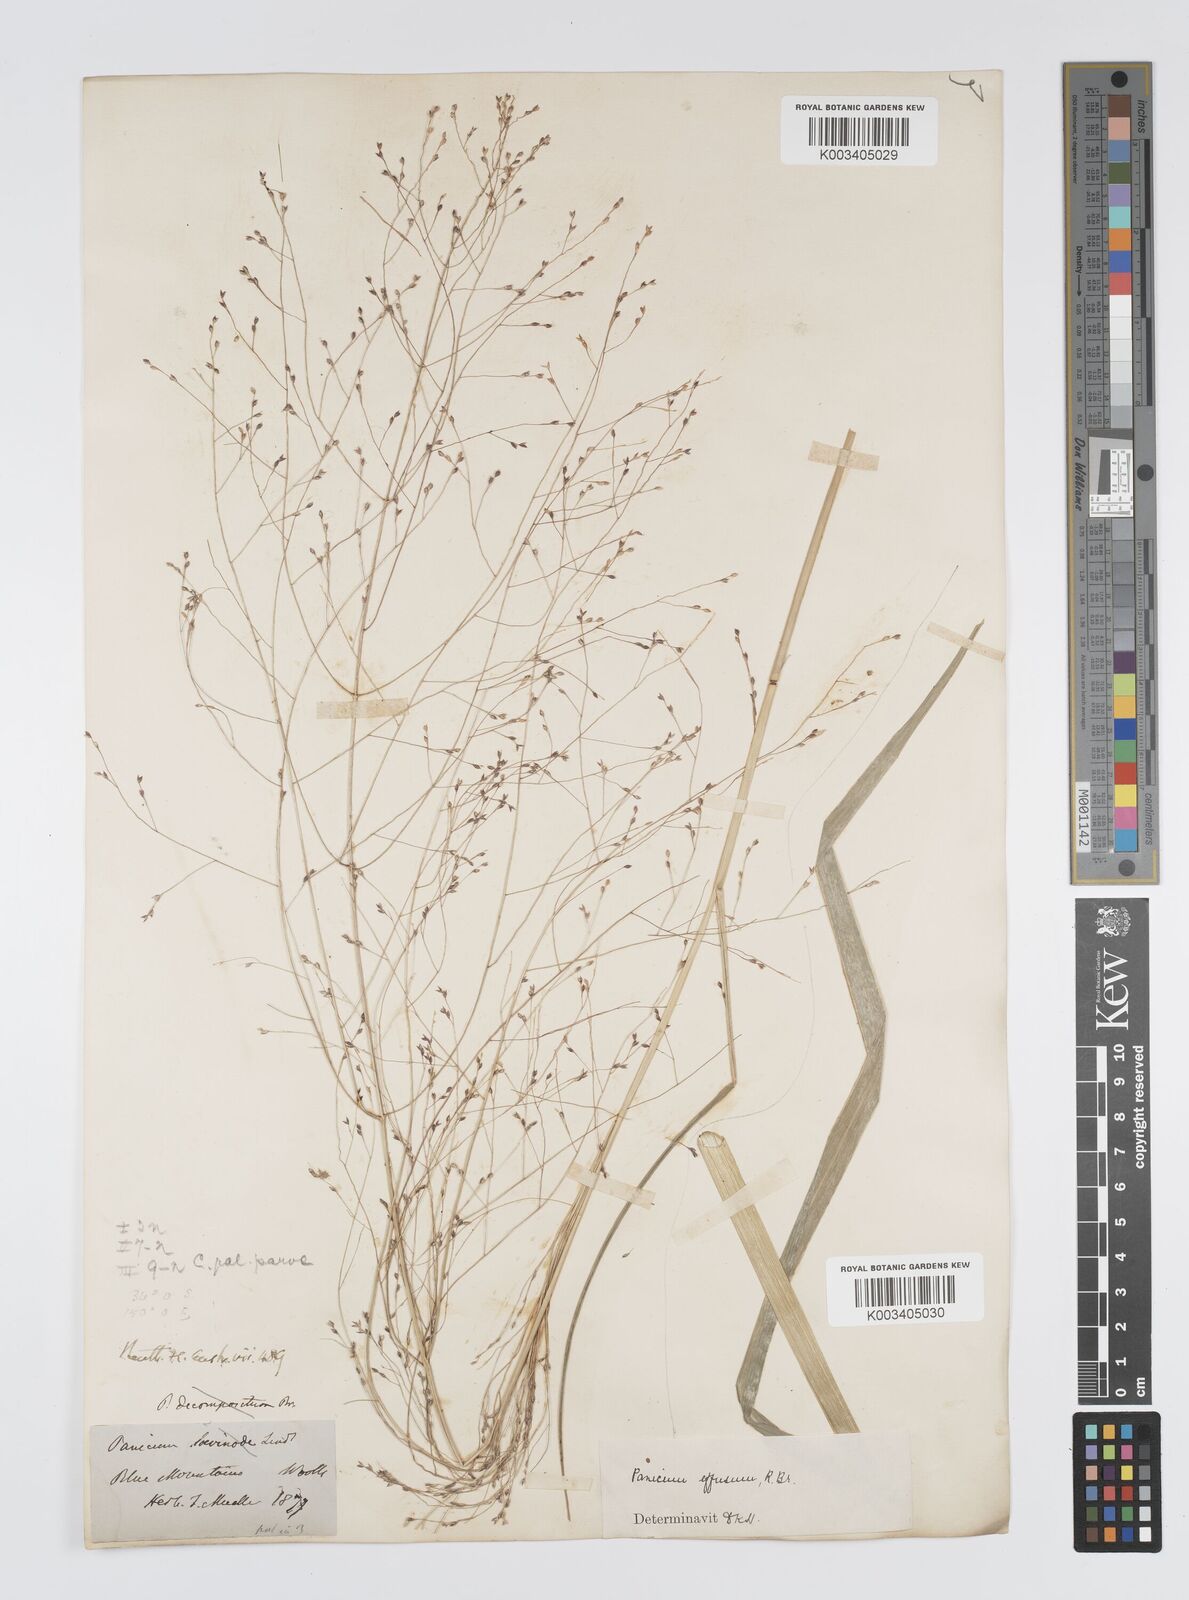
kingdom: Plantae
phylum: Tracheophyta
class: Liliopsida
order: Poales
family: Poaceae
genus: Panicum
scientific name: Panicum effusum
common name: Hairy panic grass
